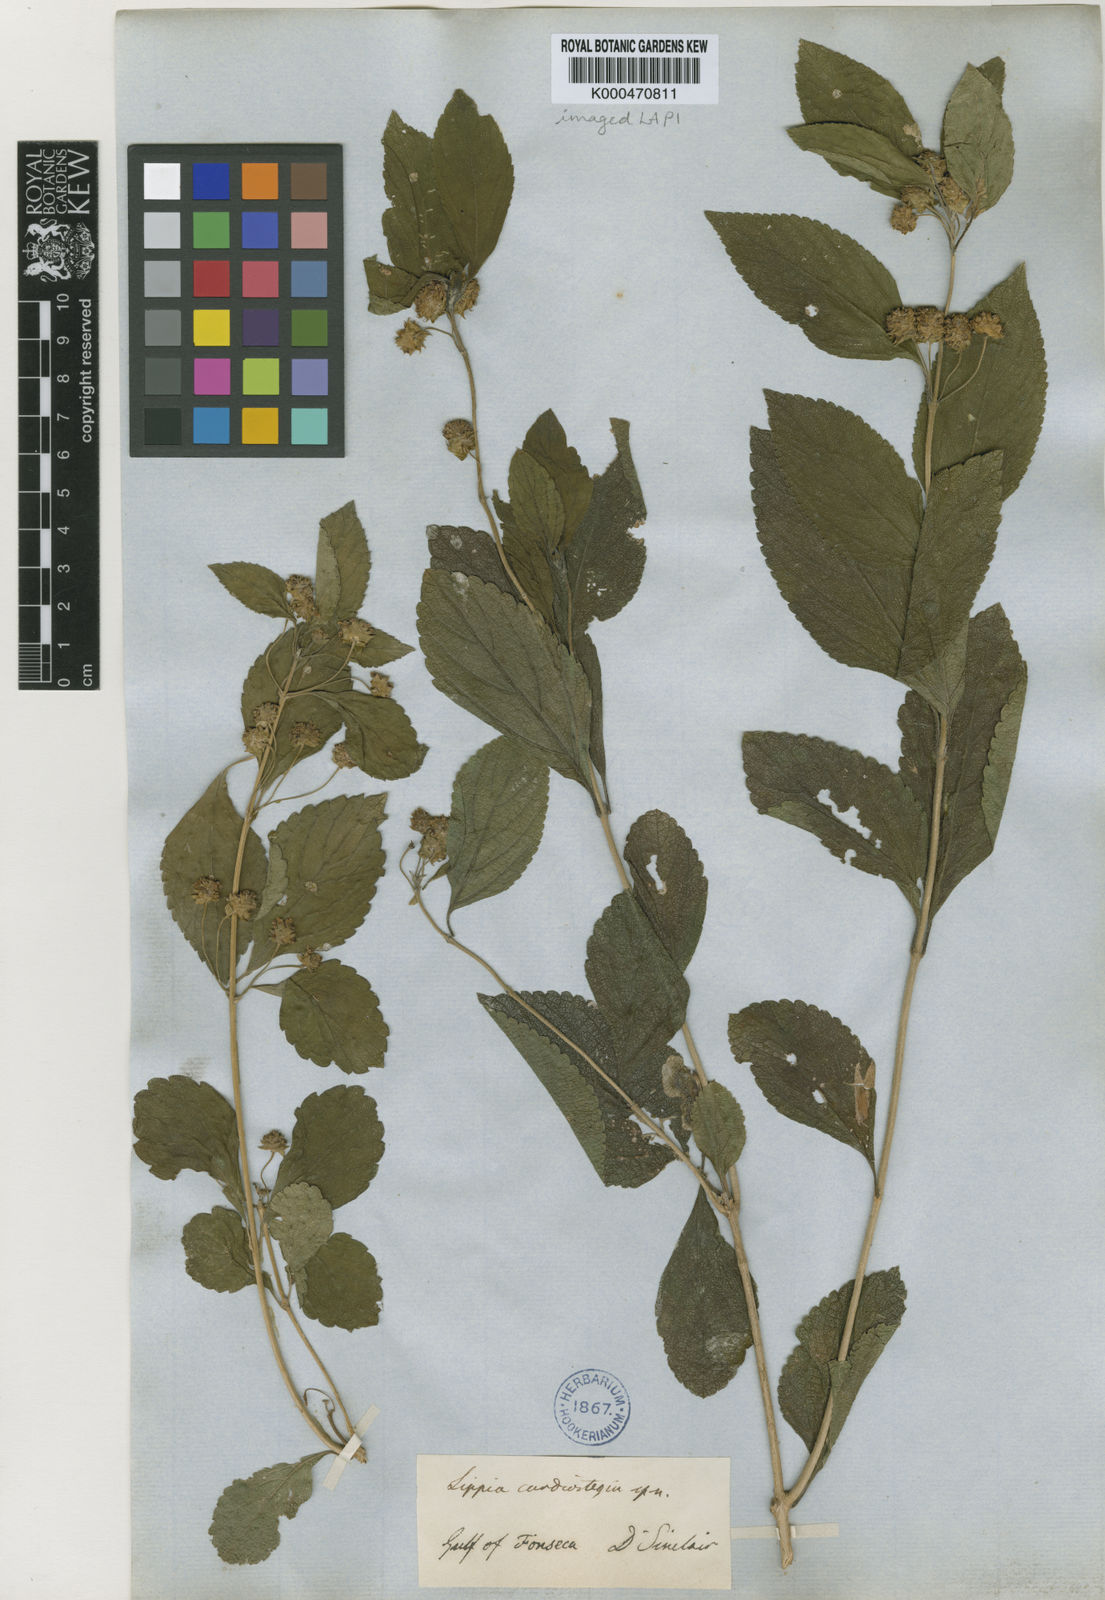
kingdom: Plantae
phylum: Tracheophyta
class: Magnoliopsida
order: Lamiales
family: Verbenaceae
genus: Lippia
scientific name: Lippia cardiostegia
